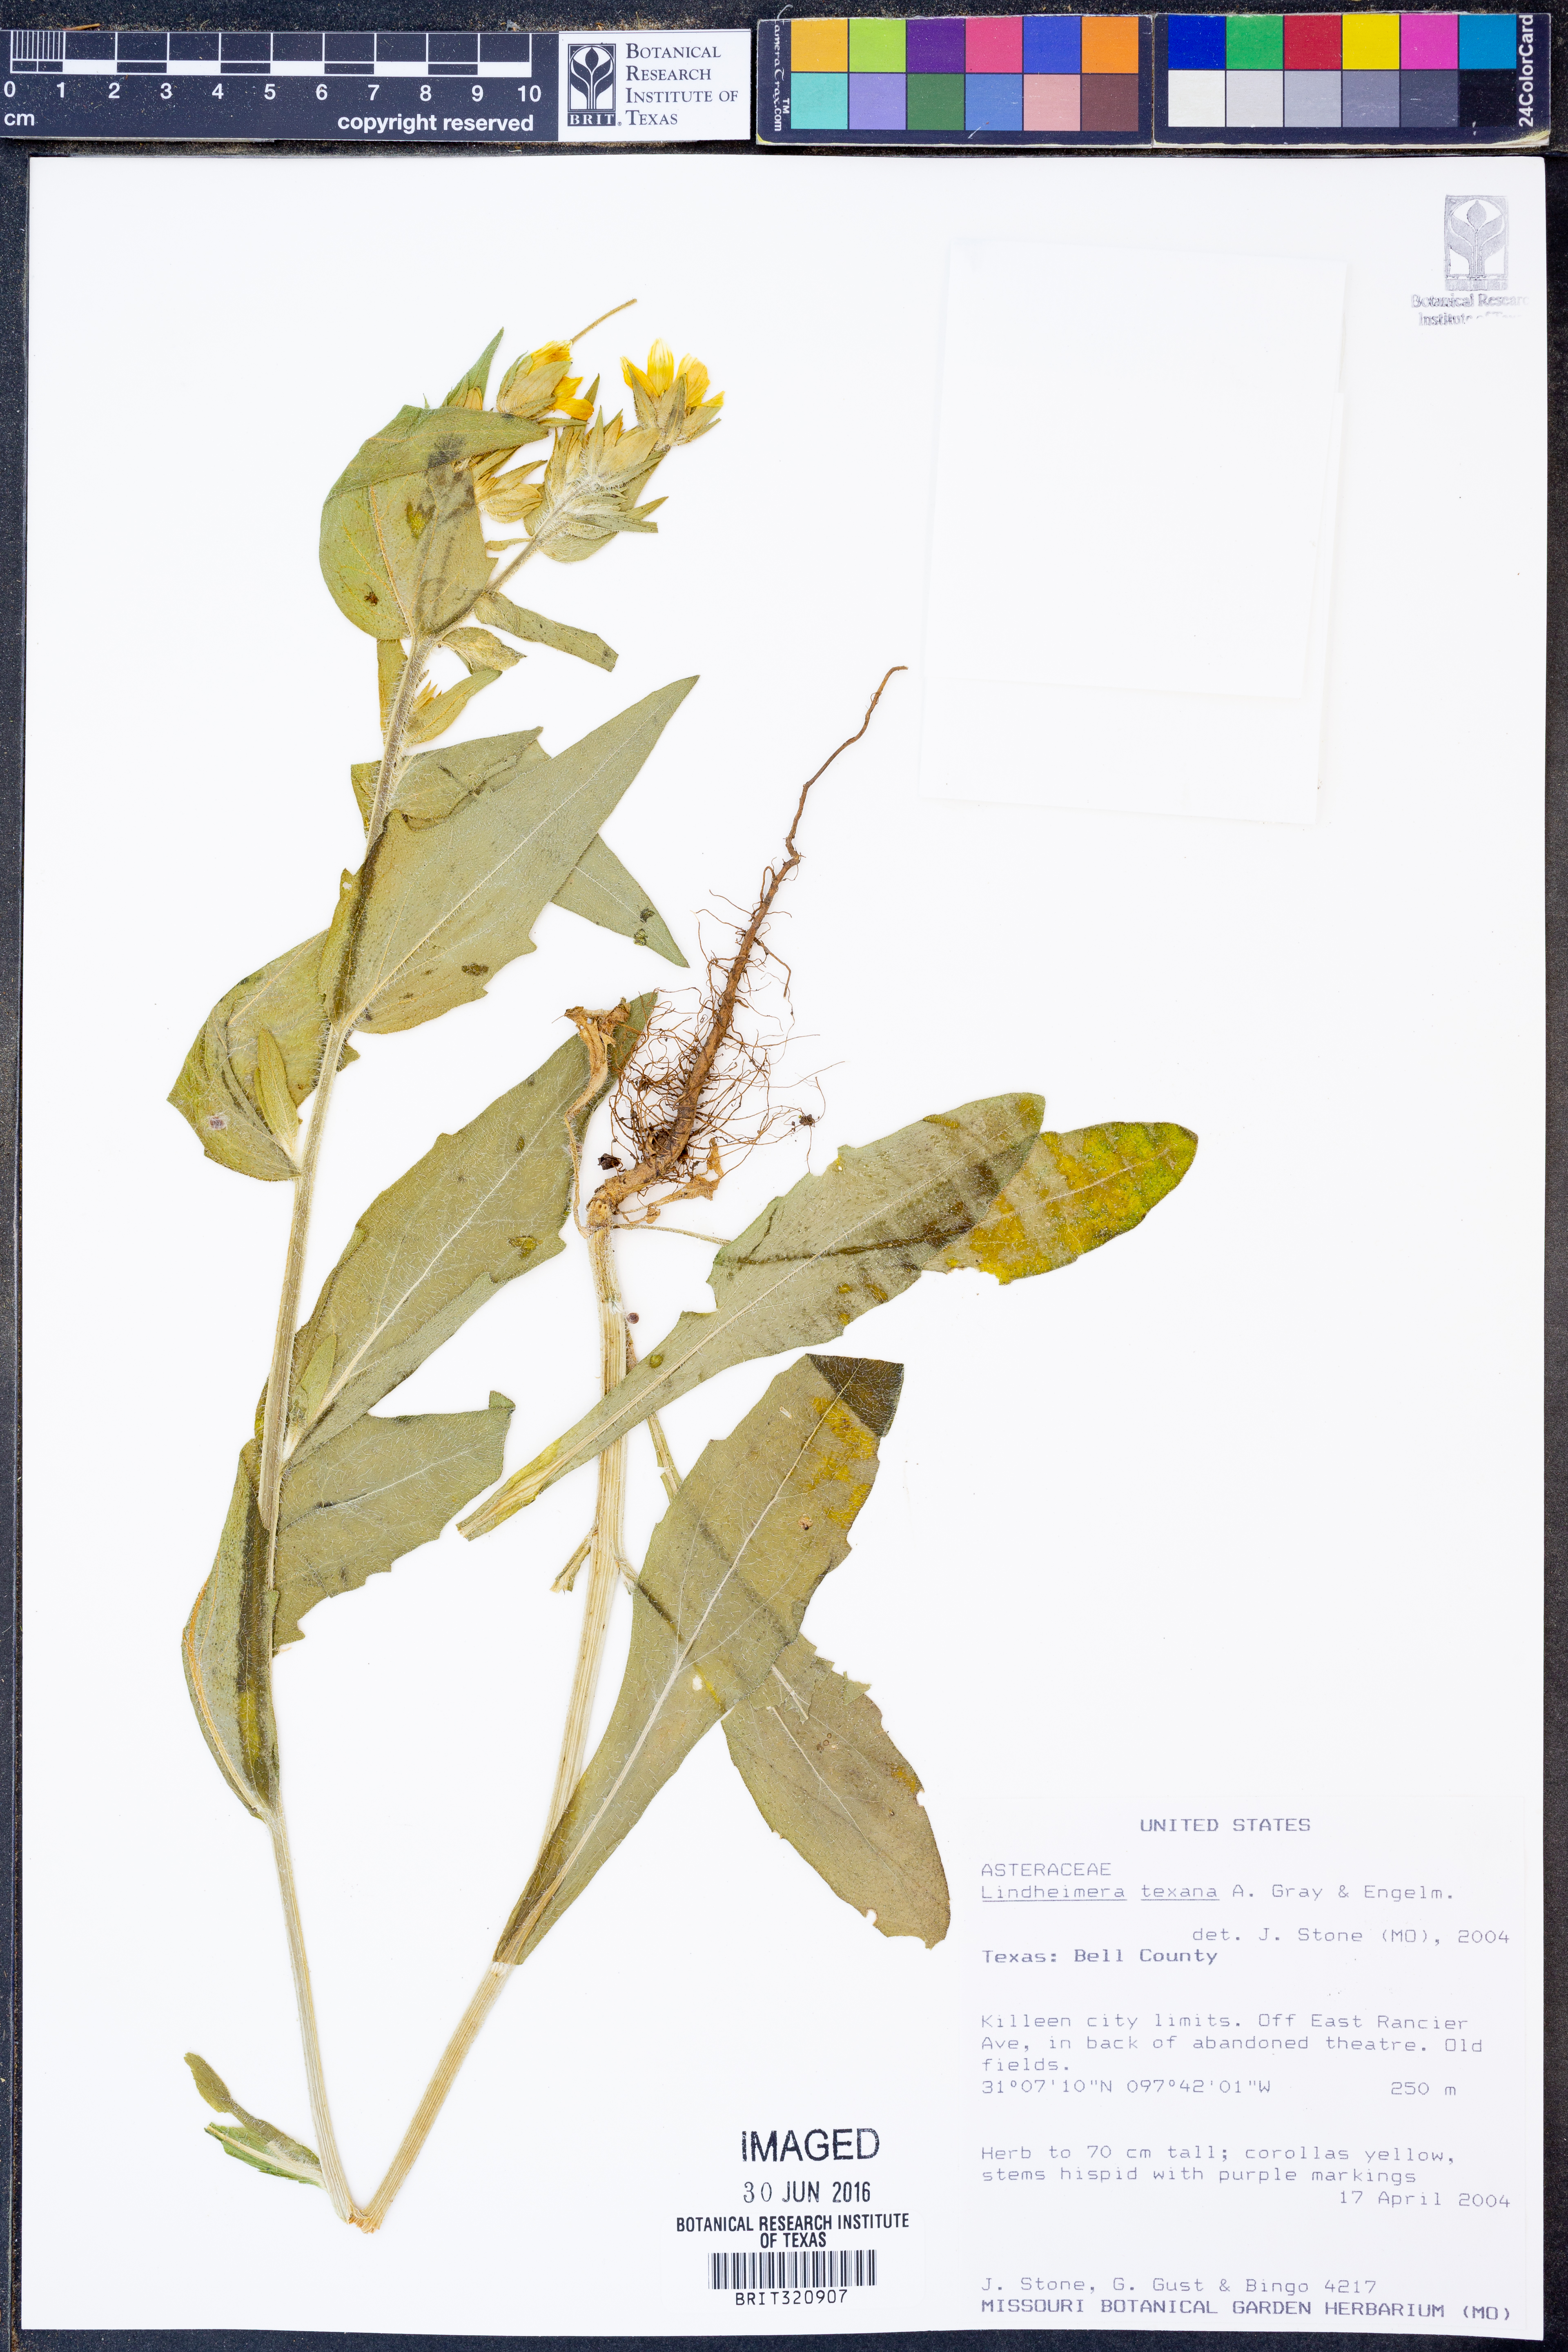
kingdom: Plantae
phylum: Tracheophyta
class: Magnoliopsida
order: Asterales
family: Asteraceae
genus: Lindheimera
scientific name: Lindheimera texana
